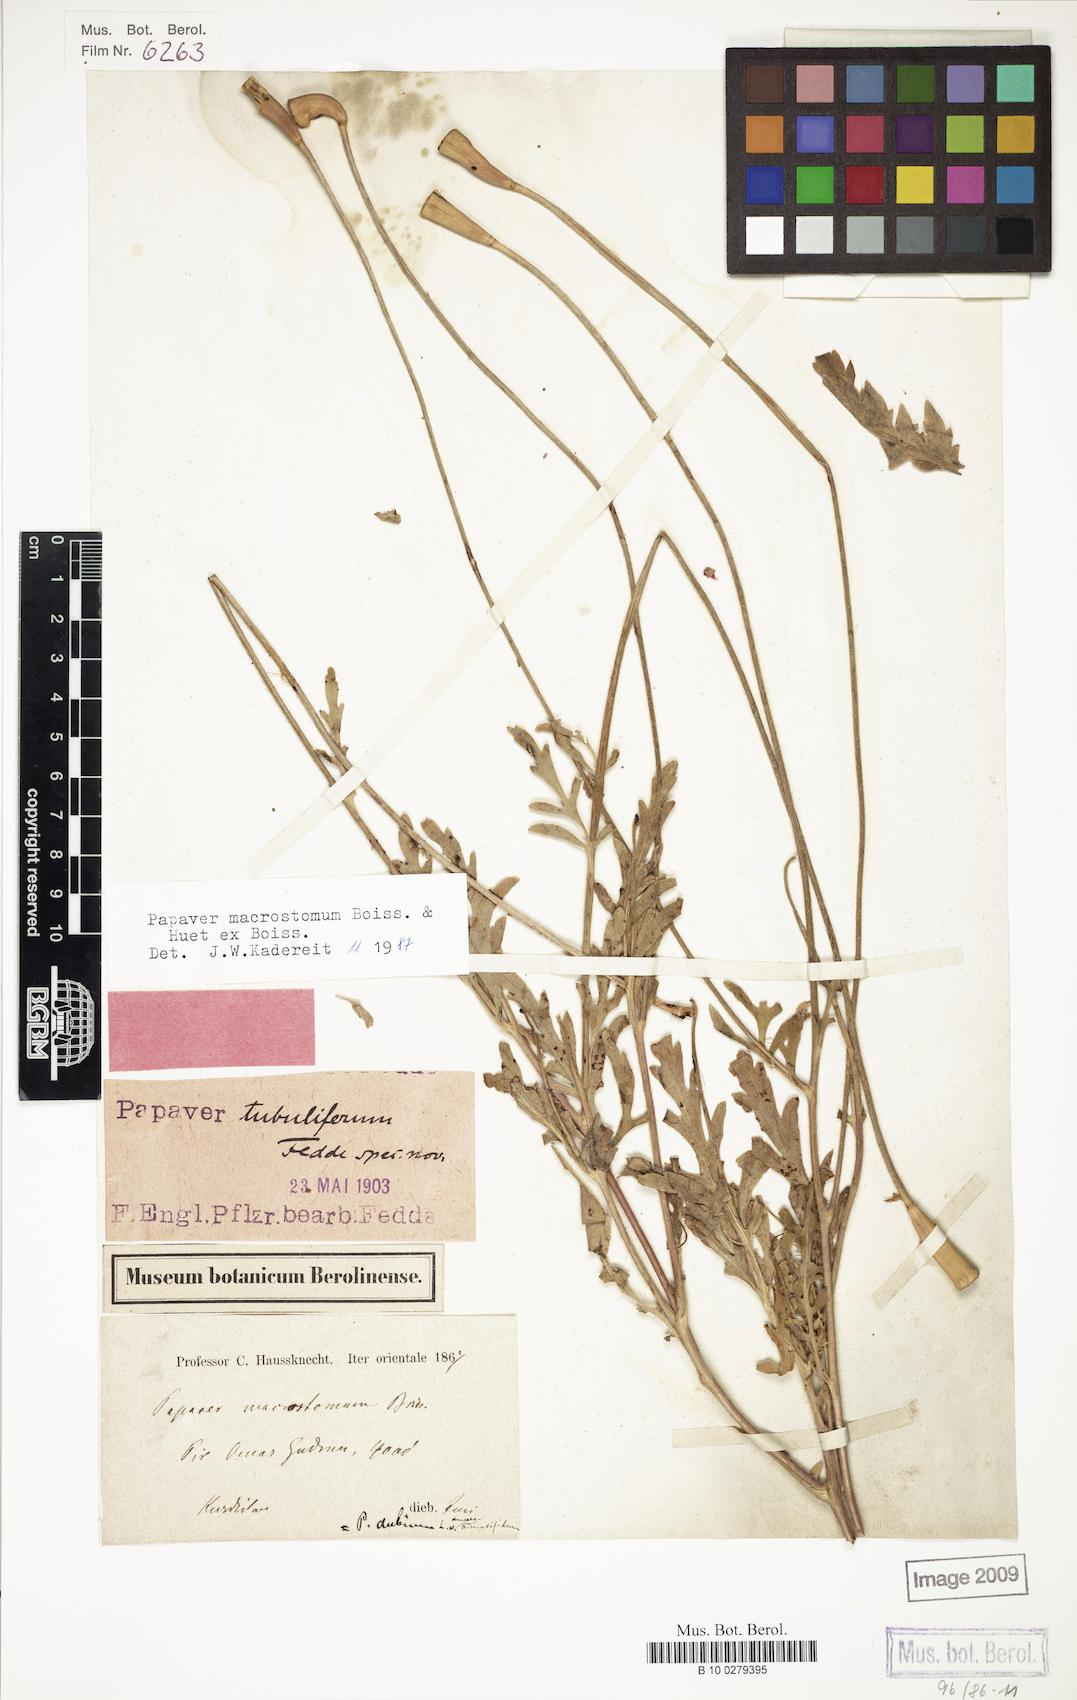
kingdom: Plantae
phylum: Tracheophyta
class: Magnoliopsida
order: Ranunculales
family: Papaveraceae
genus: Papaver
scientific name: Papaver macrostomum
